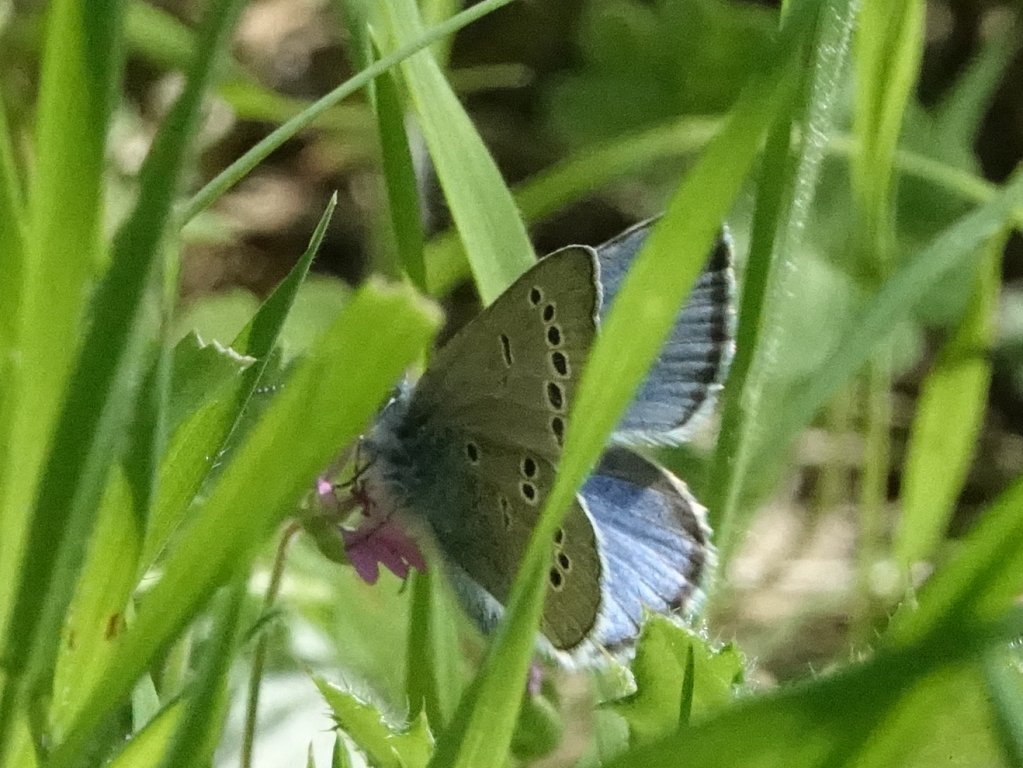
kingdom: Animalia
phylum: Arthropoda
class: Insecta
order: Lepidoptera
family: Lycaenidae
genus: Glaucopsyche
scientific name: Glaucopsyche lygdamus
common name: Silvery Blue
